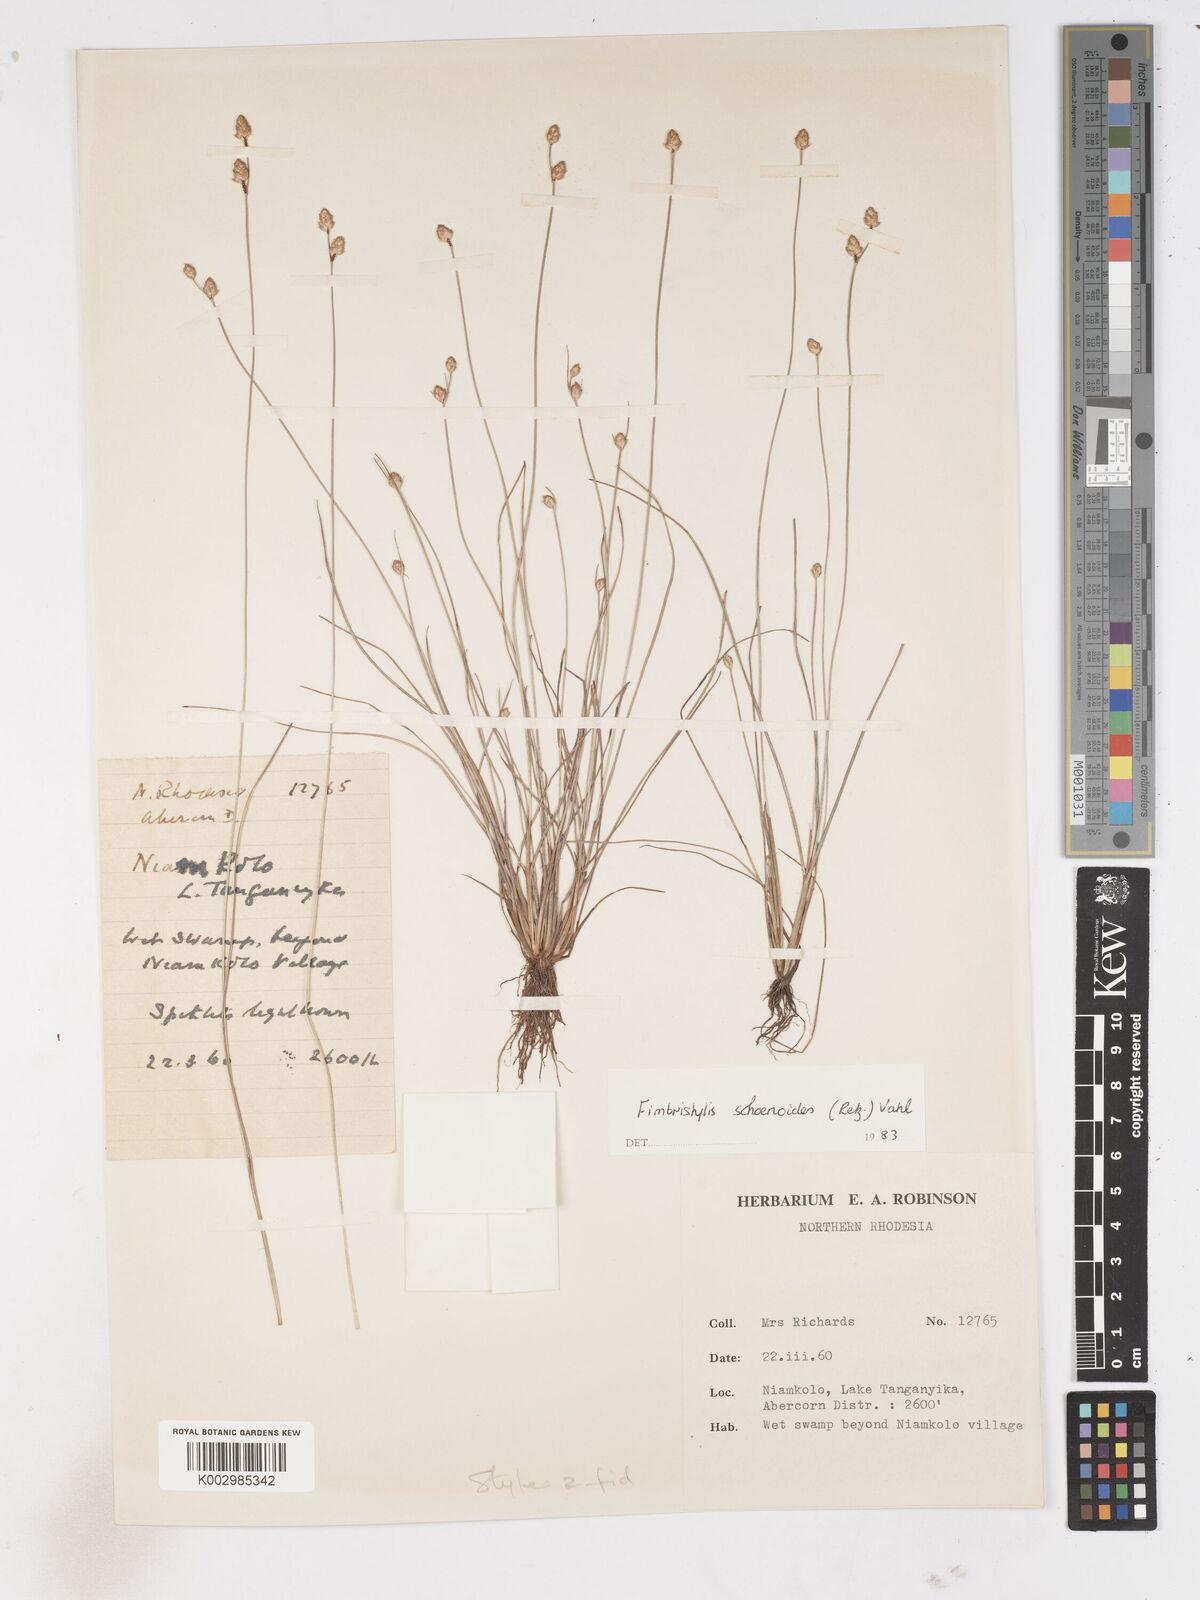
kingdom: Plantae
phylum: Tracheophyta
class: Liliopsida
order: Poales
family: Cyperaceae
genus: Fimbristylis
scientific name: Fimbristylis schoenoides
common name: Ditch fimbry
